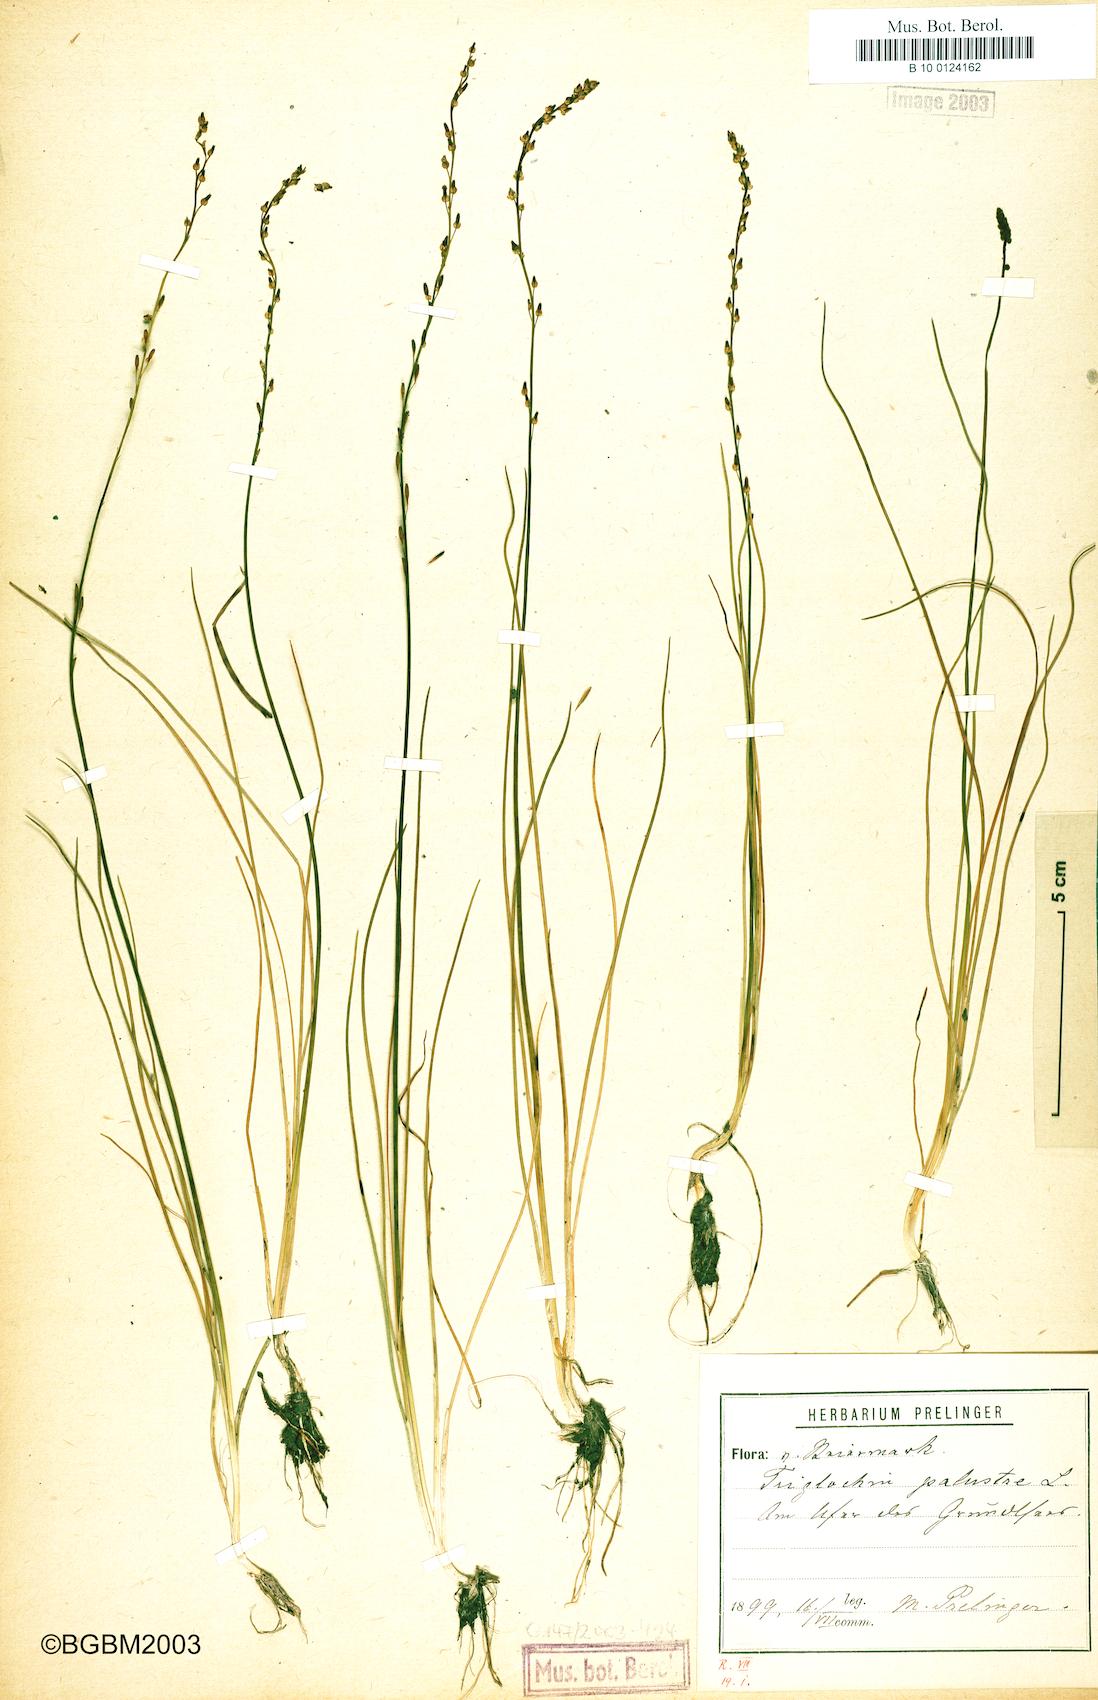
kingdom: Plantae
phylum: Tracheophyta
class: Liliopsida
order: Alismatales
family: Juncaginaceae
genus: Triglochin
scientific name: Triglochin palustris
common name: Marsh arrowgrass
